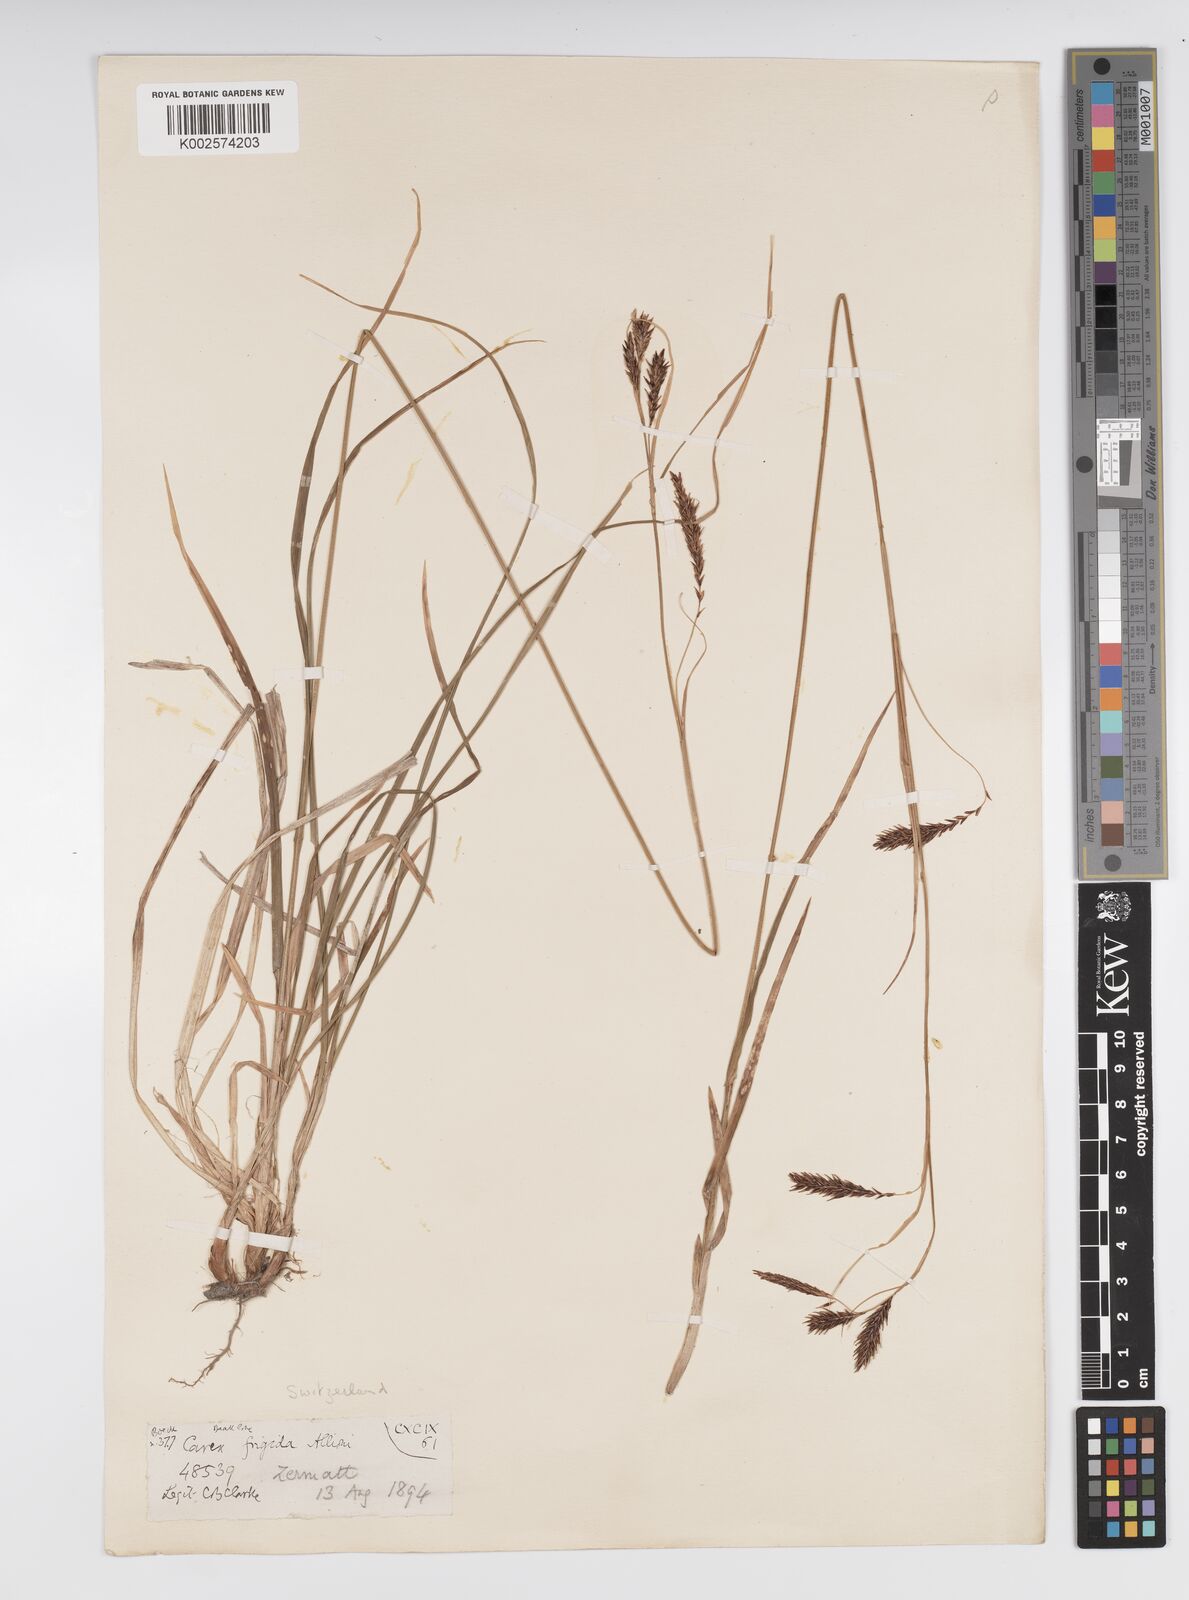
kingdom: Plantae
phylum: Tracheophyta
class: Liliopsida
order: Poales
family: Cyperaceae
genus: Carex
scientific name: Carex frigida
